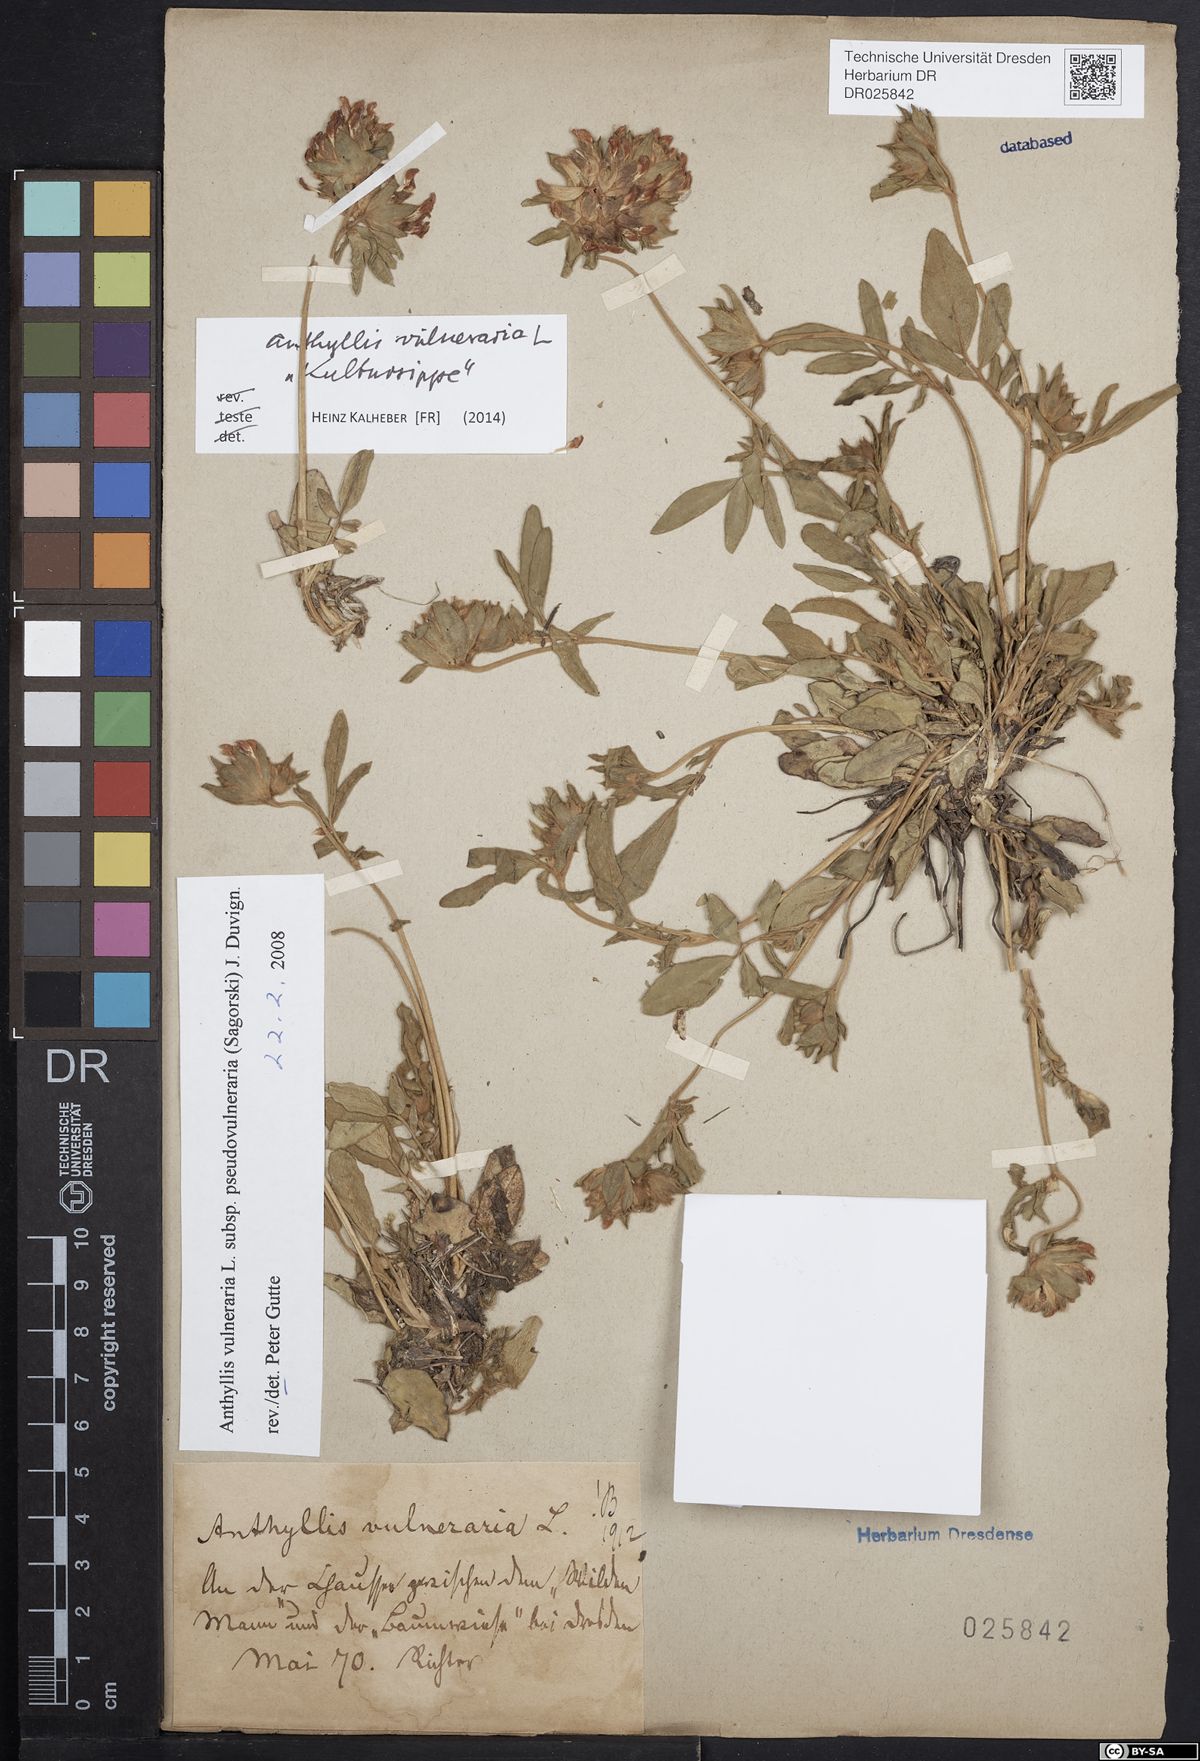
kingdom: Plantae
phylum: Tracheophyta
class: Magnoliopsida
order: Fabales
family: Fabaceae
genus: Anthyllis
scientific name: Anthyllis vulneraria
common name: Kidney vetch
